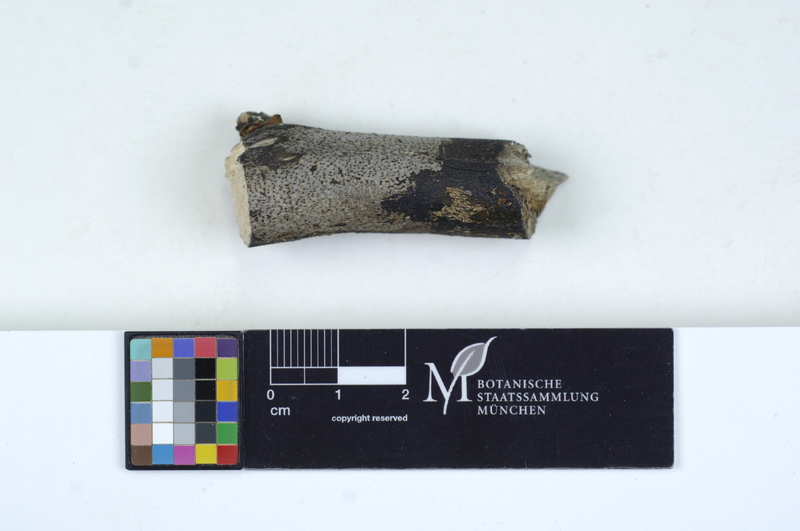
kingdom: Fungi
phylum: Ascomycota
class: Sordariomycetes
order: Xylariales
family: Diatrypaceae
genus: Eutypa
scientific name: Eutypa maura
